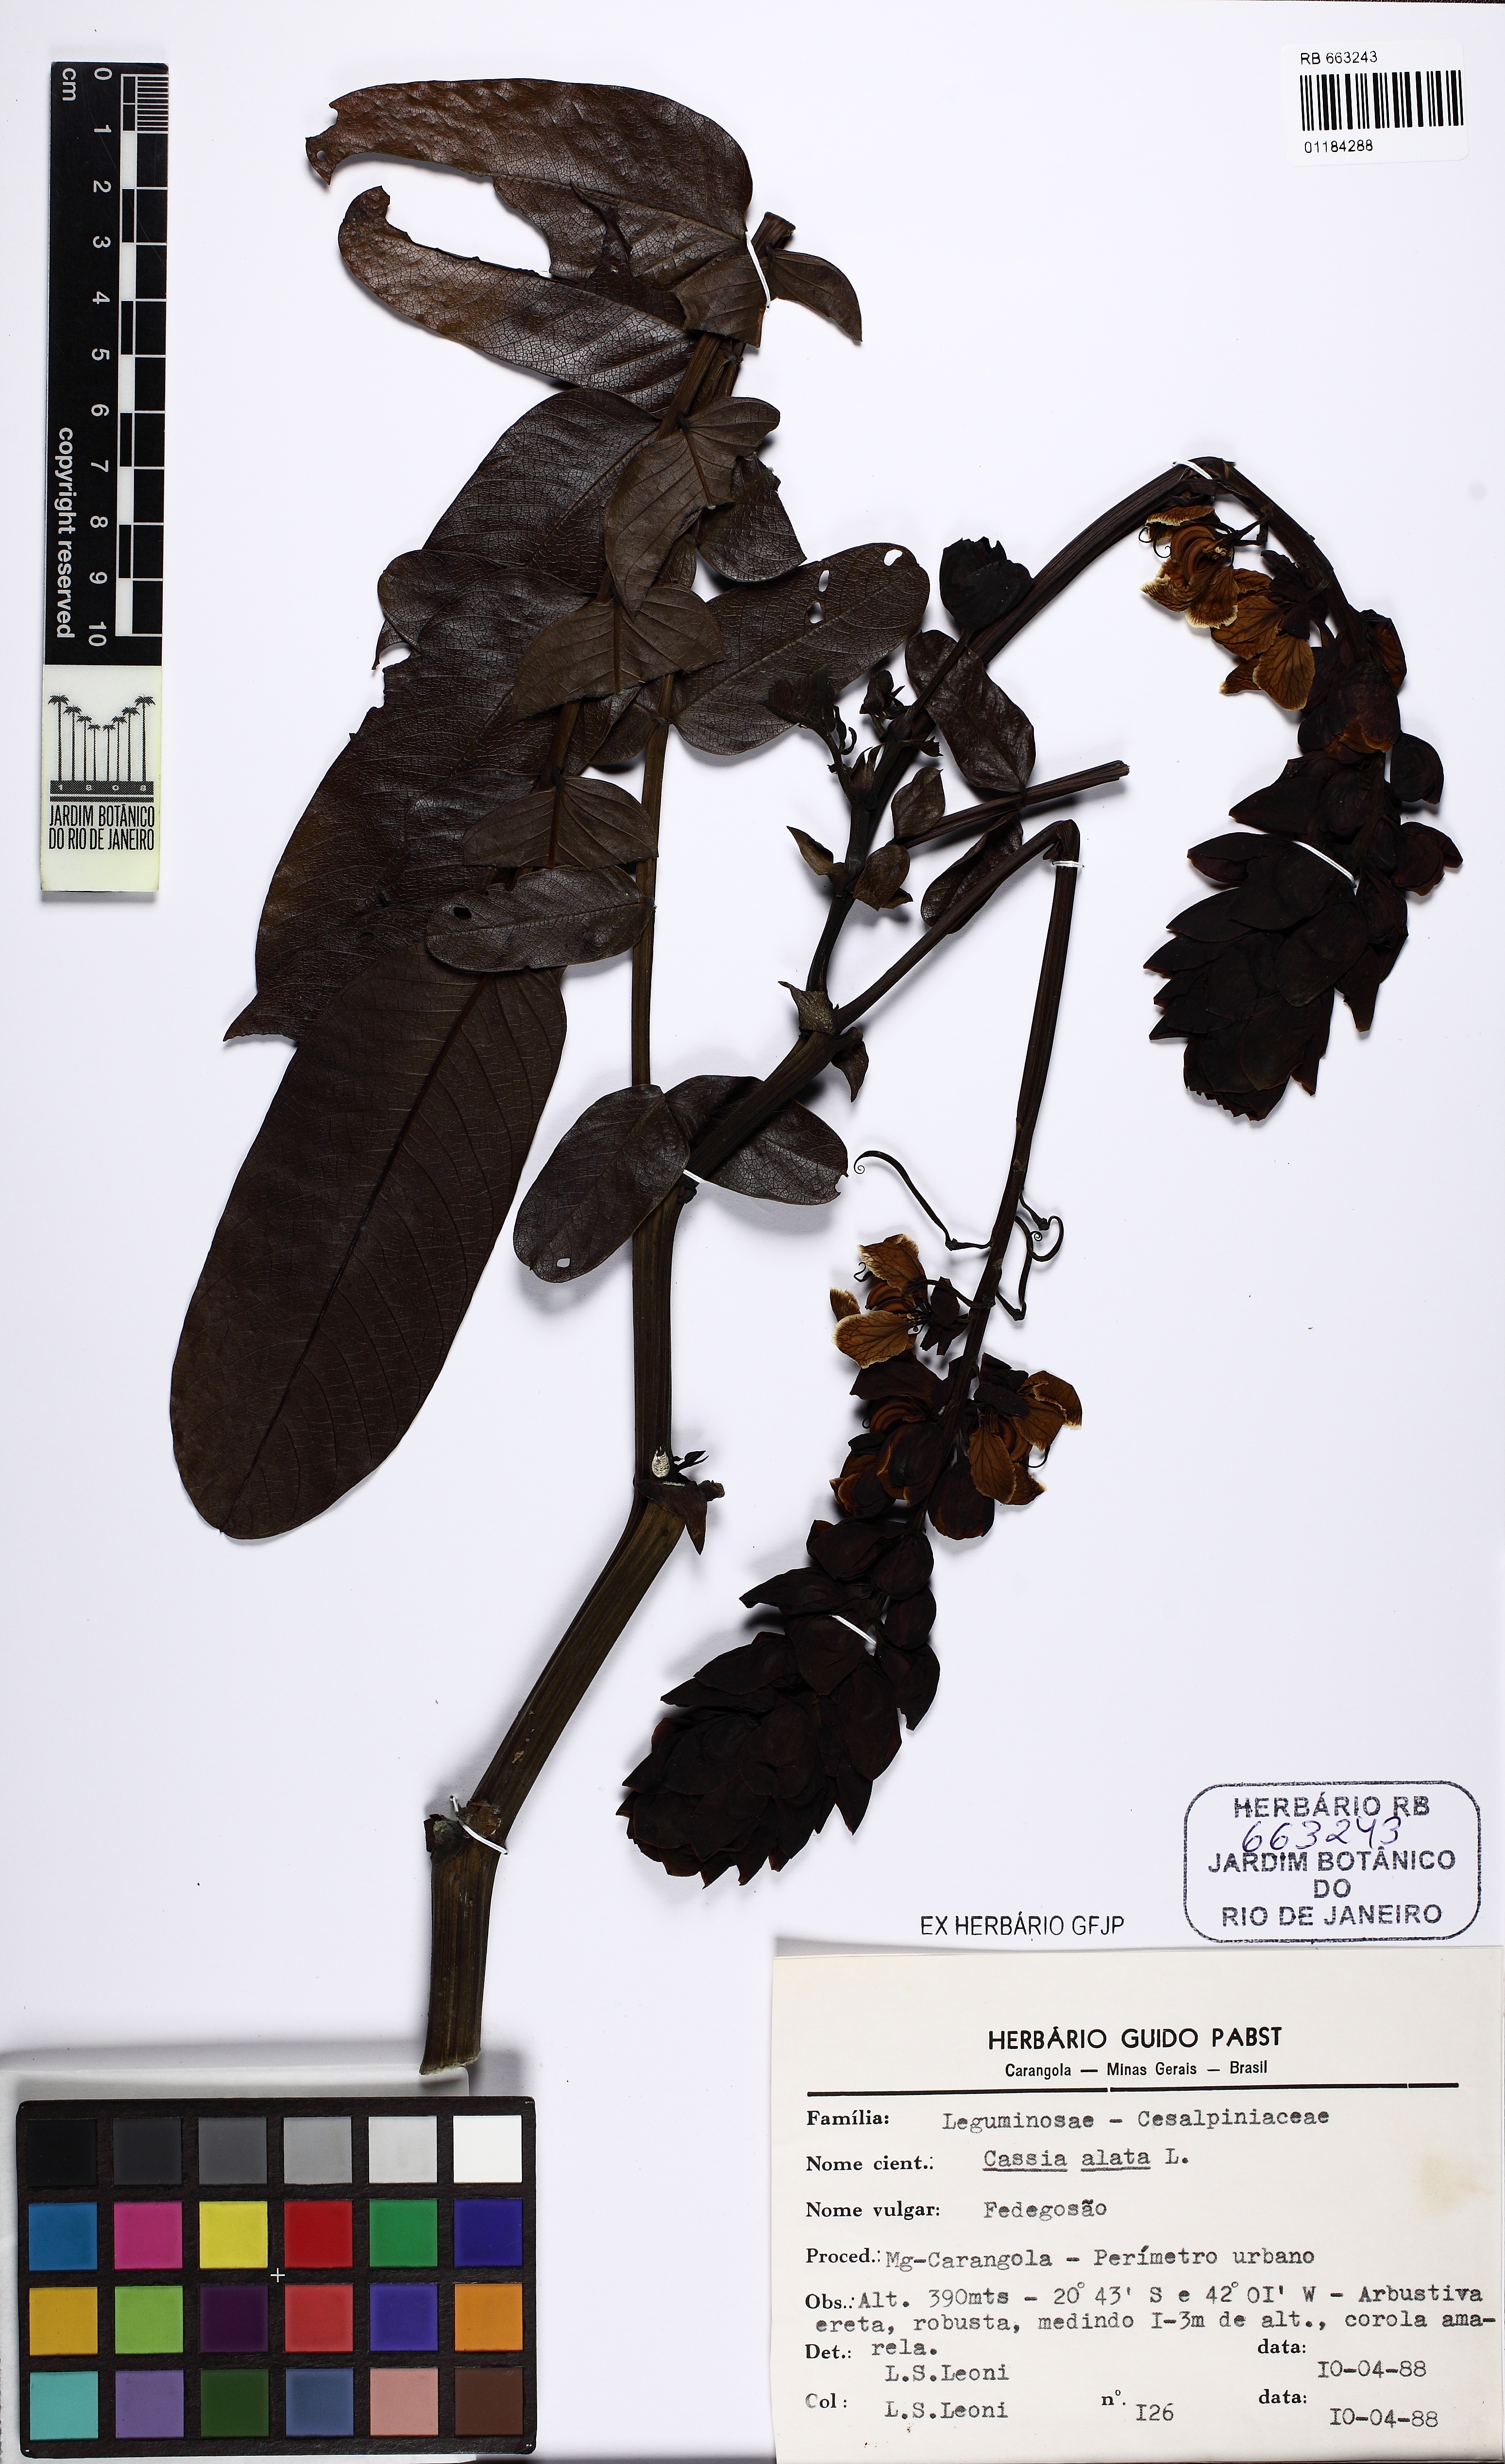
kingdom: Plantae
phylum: Tracheophyta
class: Magnoliopsida
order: Fabales
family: Fabaceae
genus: Senna
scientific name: Senna alata
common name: Emperor's candlesticks
